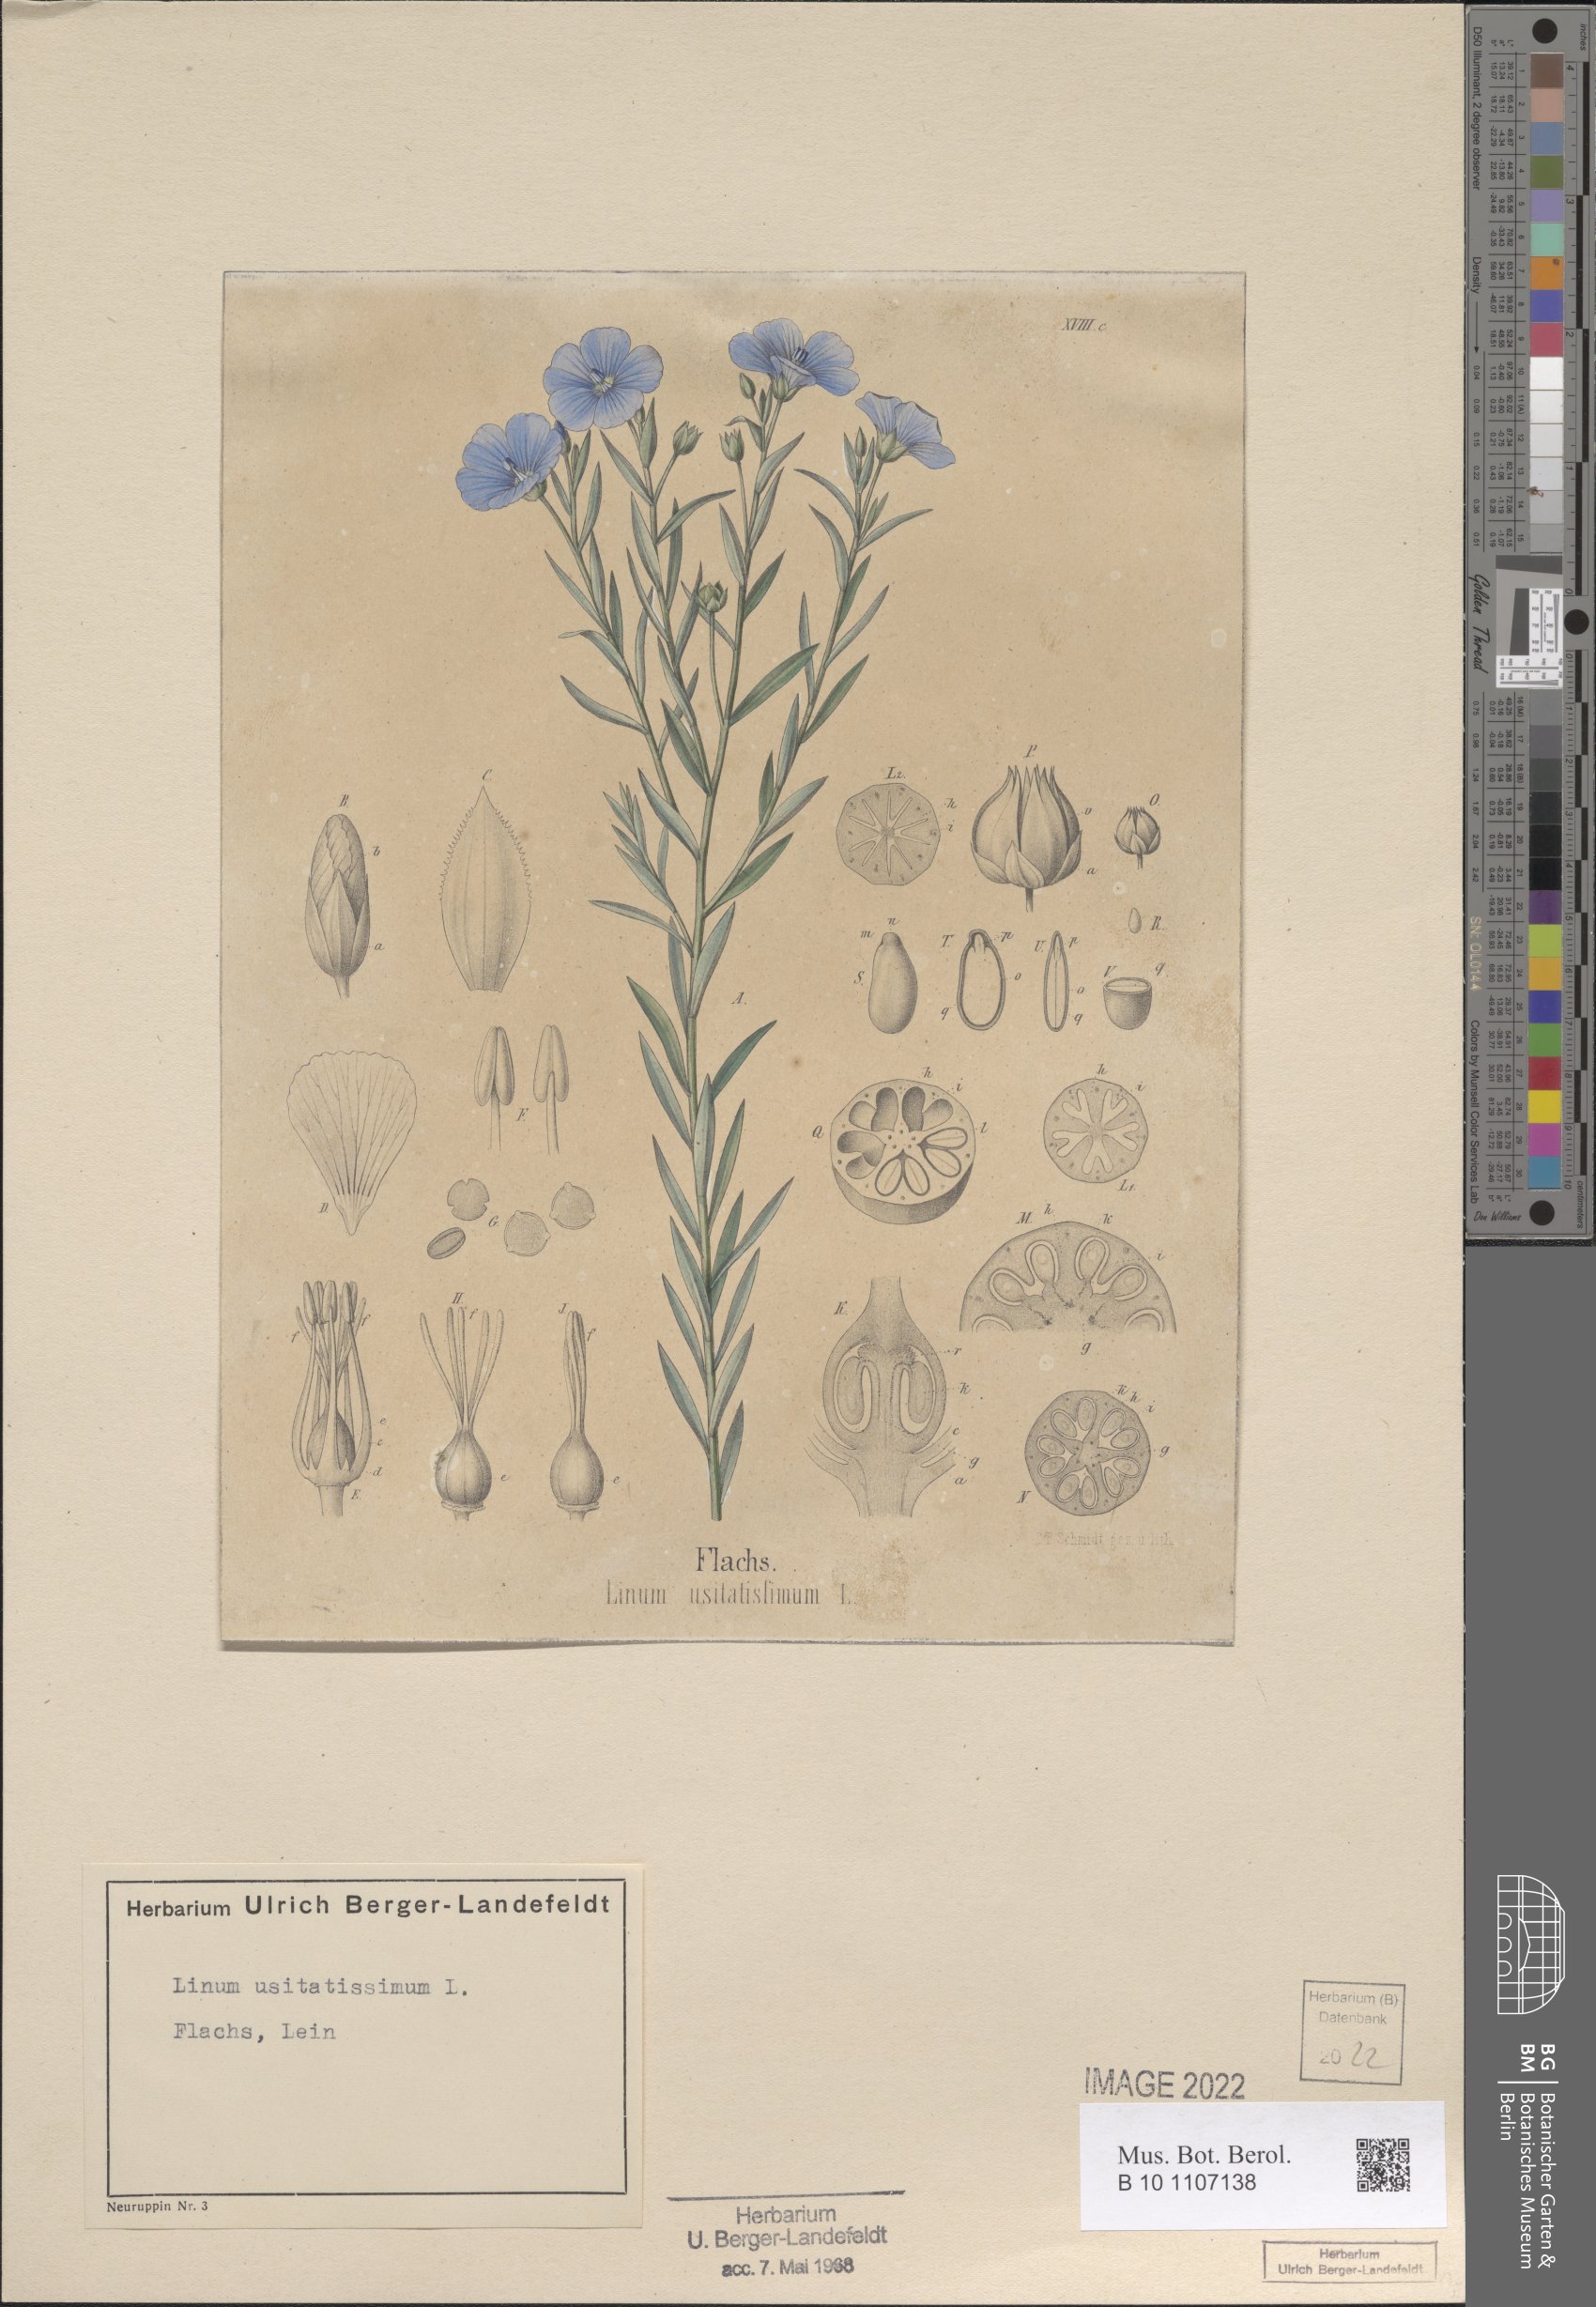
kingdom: Plantae
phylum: Tracheophyta
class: Magnoliopsida
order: Malpighiales
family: Linaceae
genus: Linum
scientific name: Linum usitatissimum
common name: Flax
